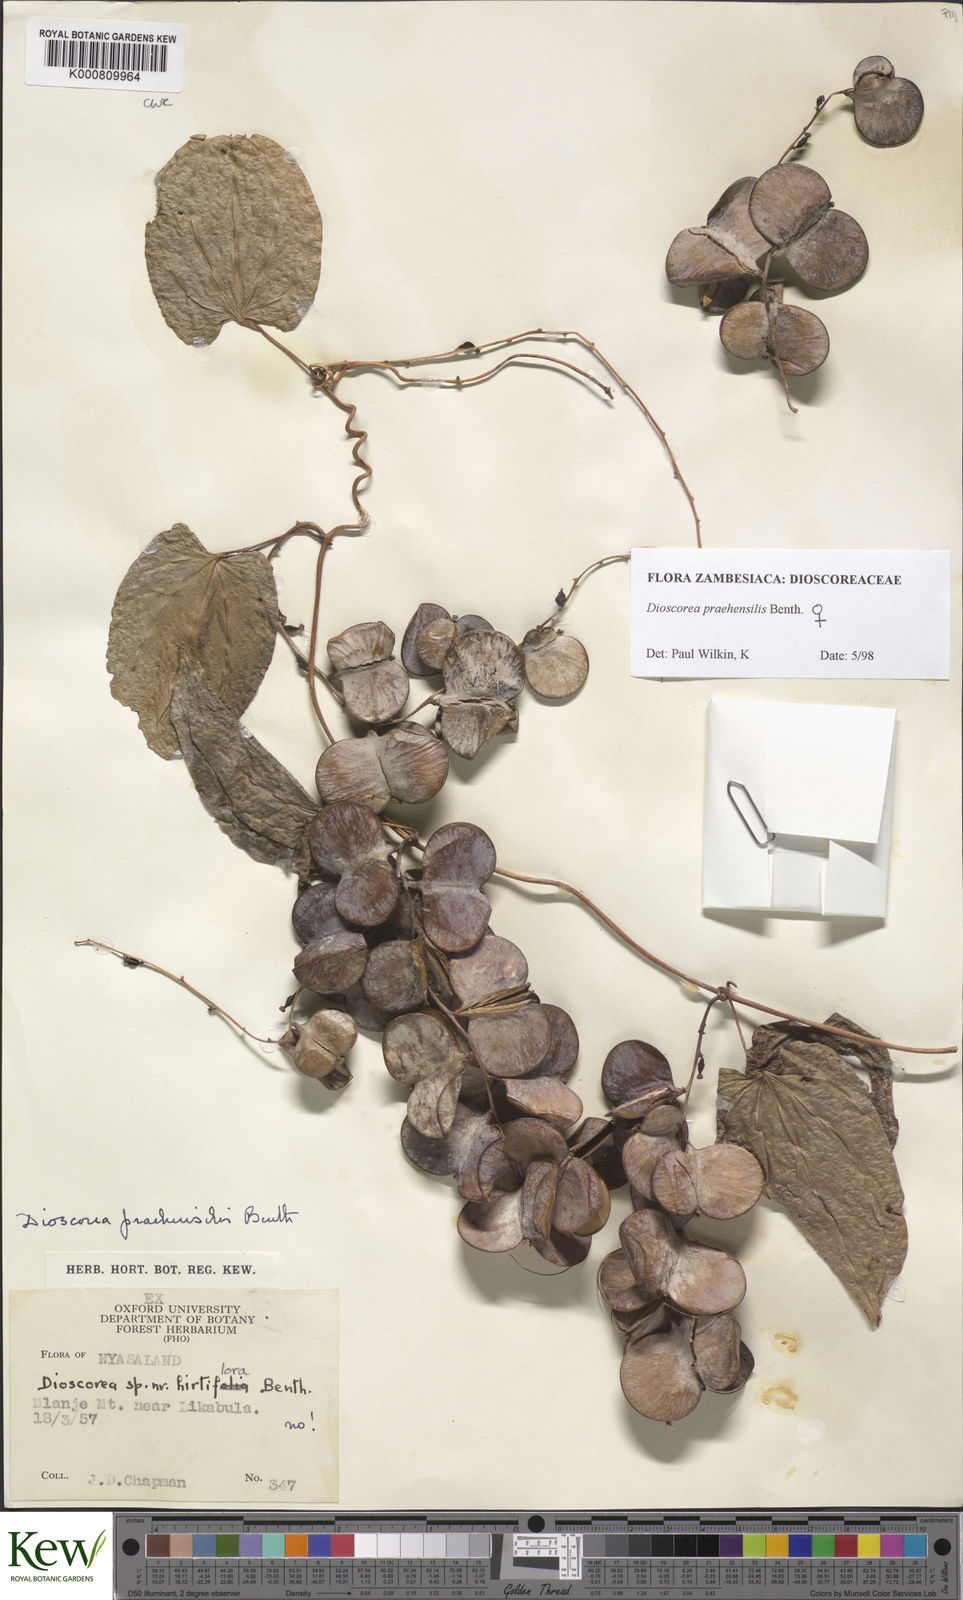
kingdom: Plantae
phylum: Tracheophyta
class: Liliopsida
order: Dioscoreales
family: Dioscoreaceae
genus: Dioscorea
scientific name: Dioscorea praehensilis
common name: Bush yam
